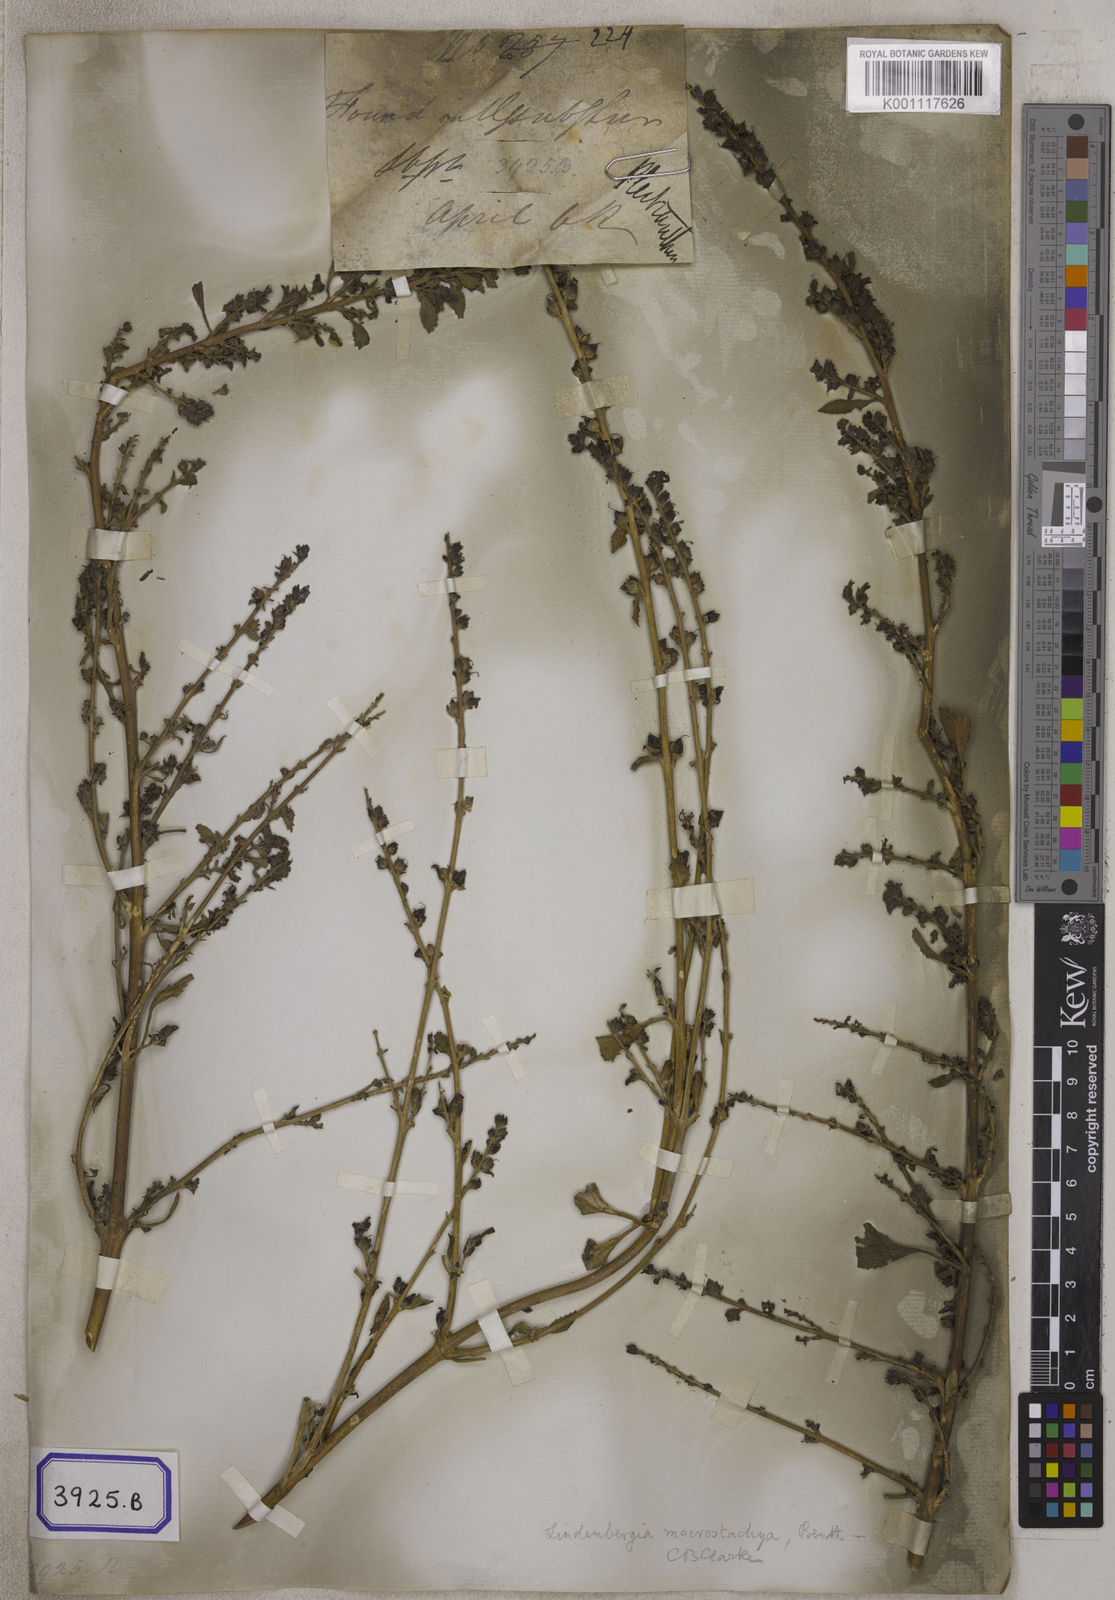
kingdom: Plantae
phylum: Tracheophyta
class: Magnoliopsida
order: Lamiales
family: Plantaginaceae
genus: Stemodia
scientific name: Stemodia
